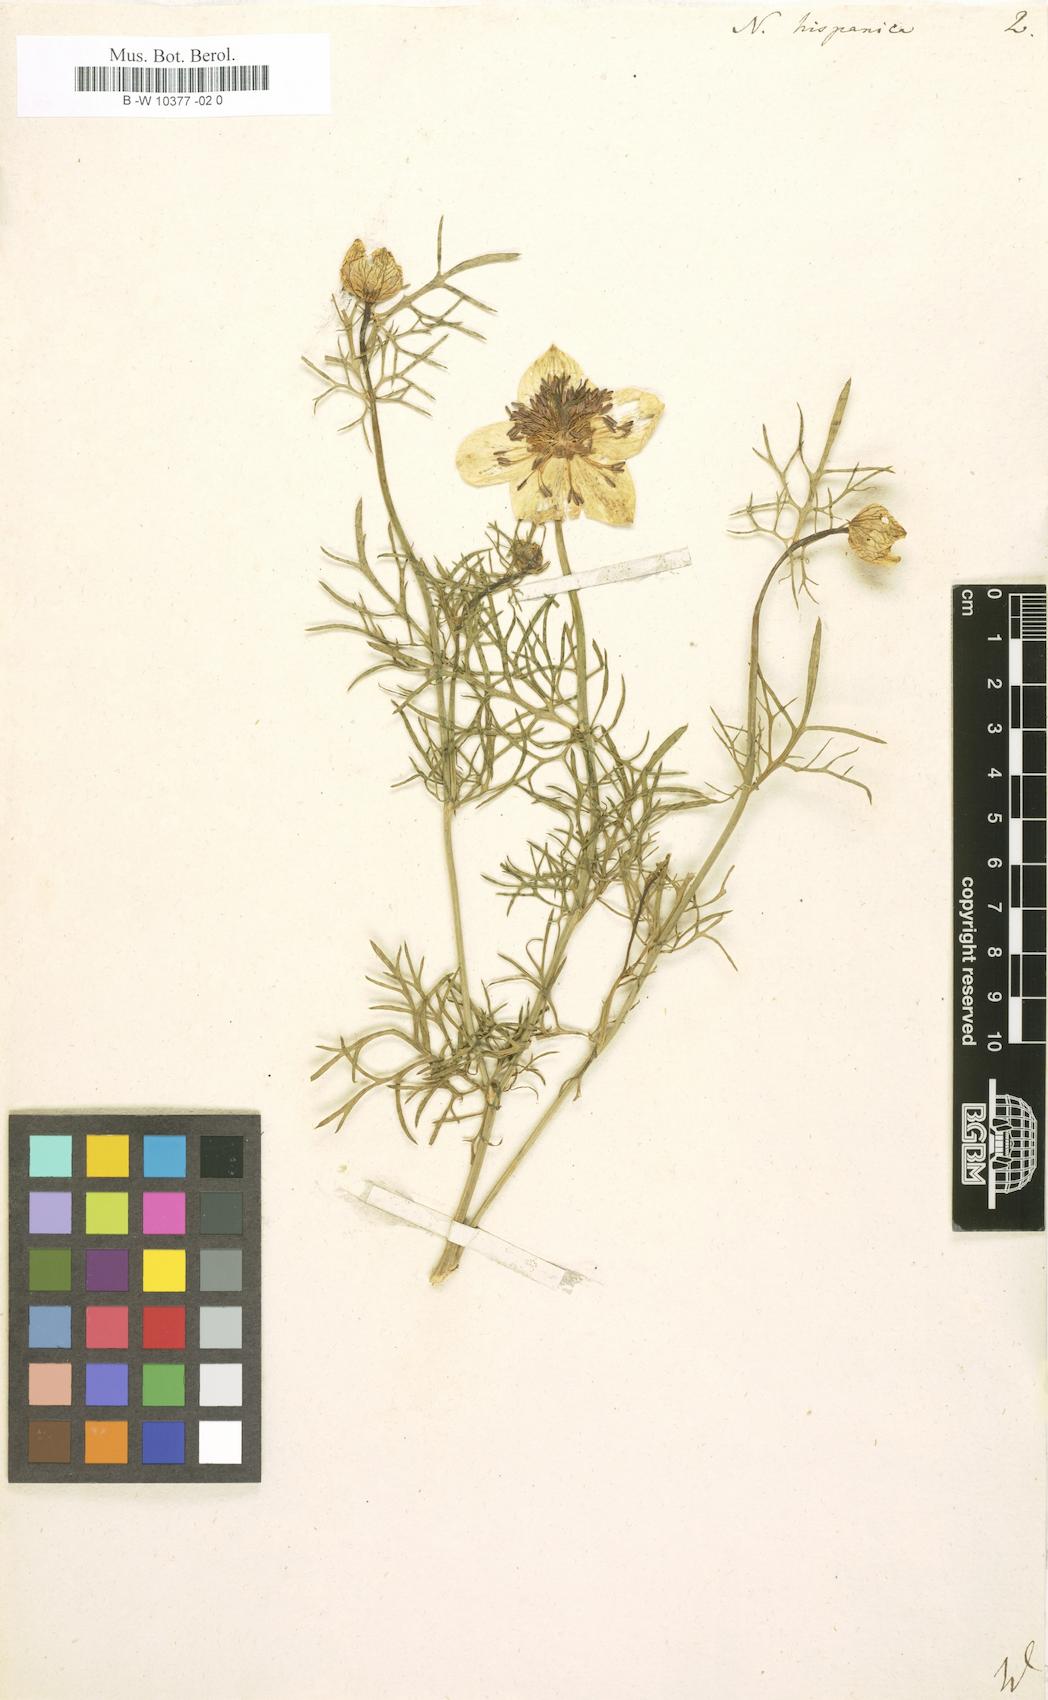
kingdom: Plantae
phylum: Tracheophyta
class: Magnoliopsida
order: Ranunculales
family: Ranunculaceae
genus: Nigella
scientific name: Nigella hispanica
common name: Fennel-flower
